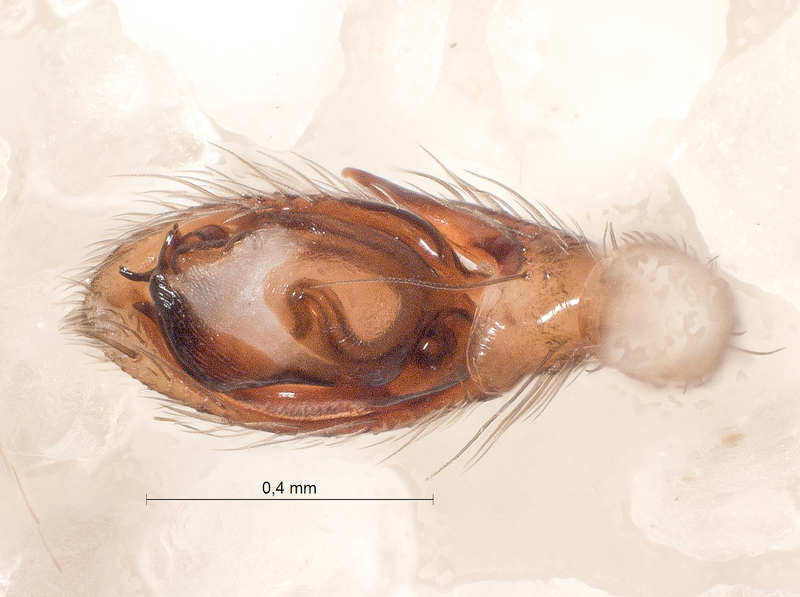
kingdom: Animalia
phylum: Arthropoda
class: Arachnida
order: Araneae
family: Gnaphosidae
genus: Zelotes
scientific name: Zelotes electus
